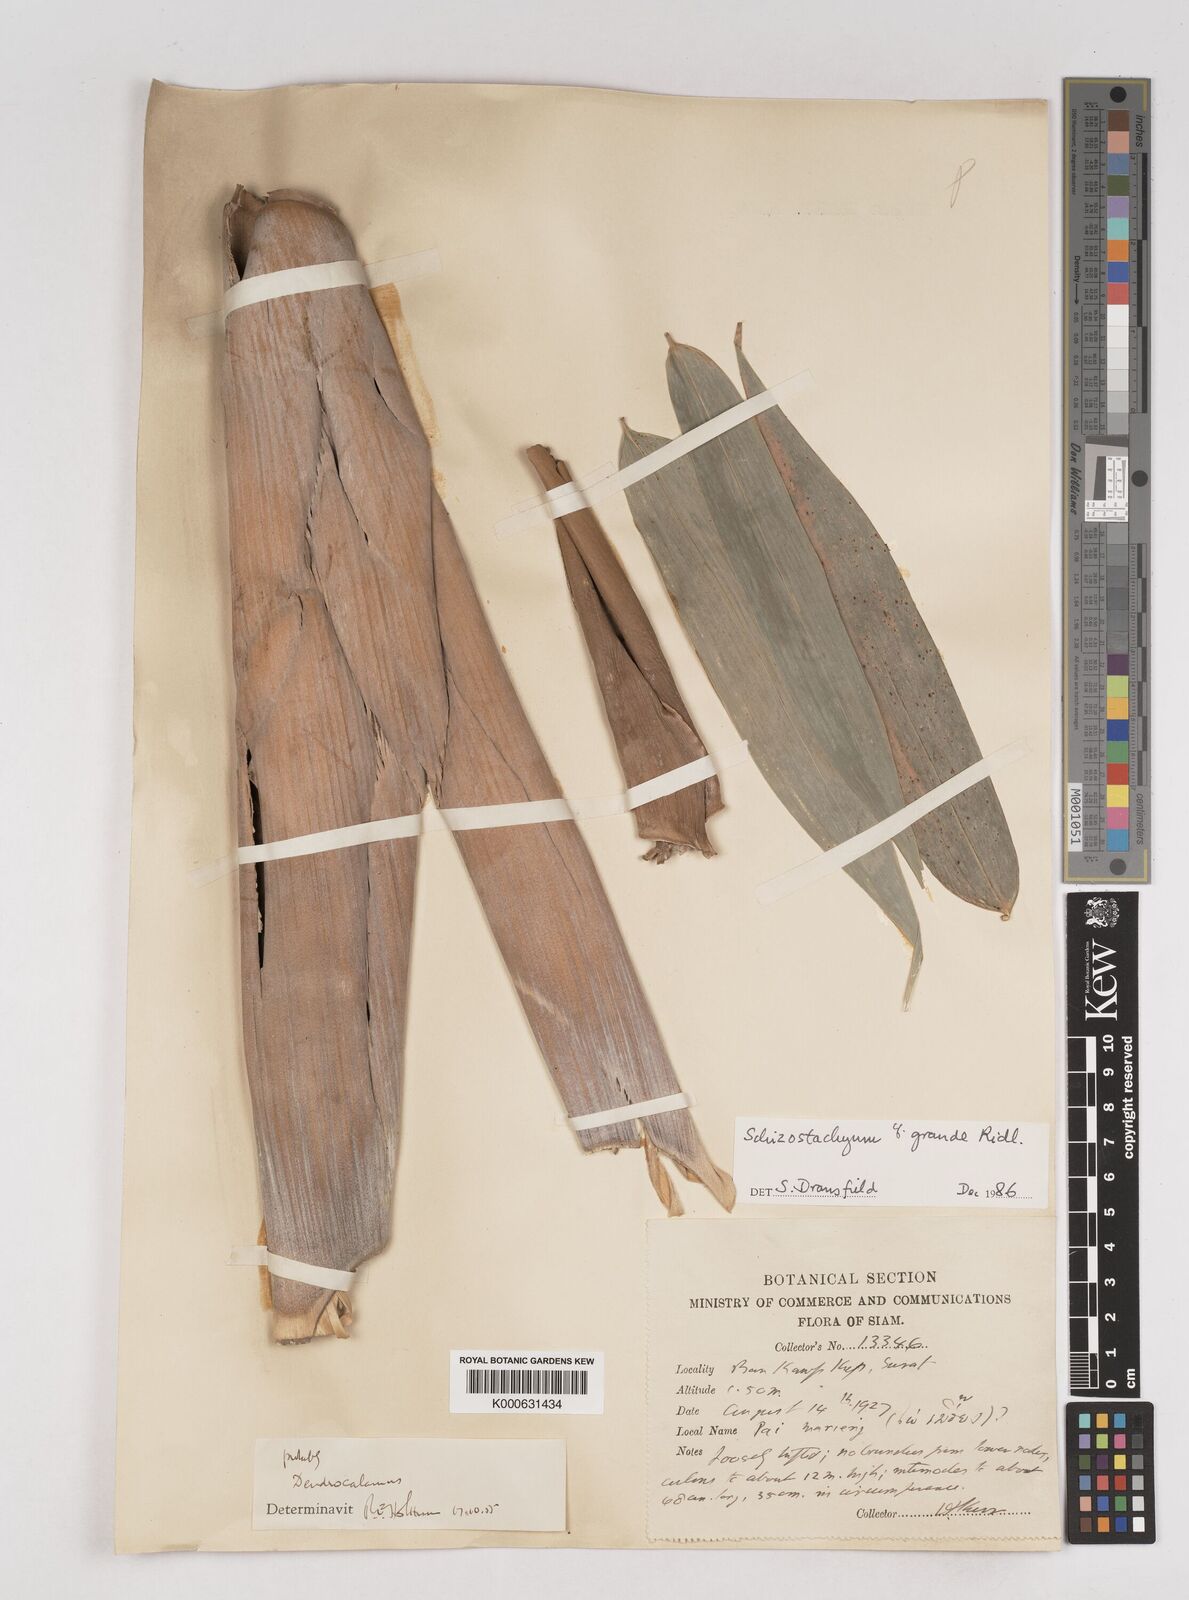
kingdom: Plantae
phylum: Tracheophyta
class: Liliopsida
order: Poales
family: Poaceae
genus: Schizostachyum
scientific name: Schizostachyum grande
